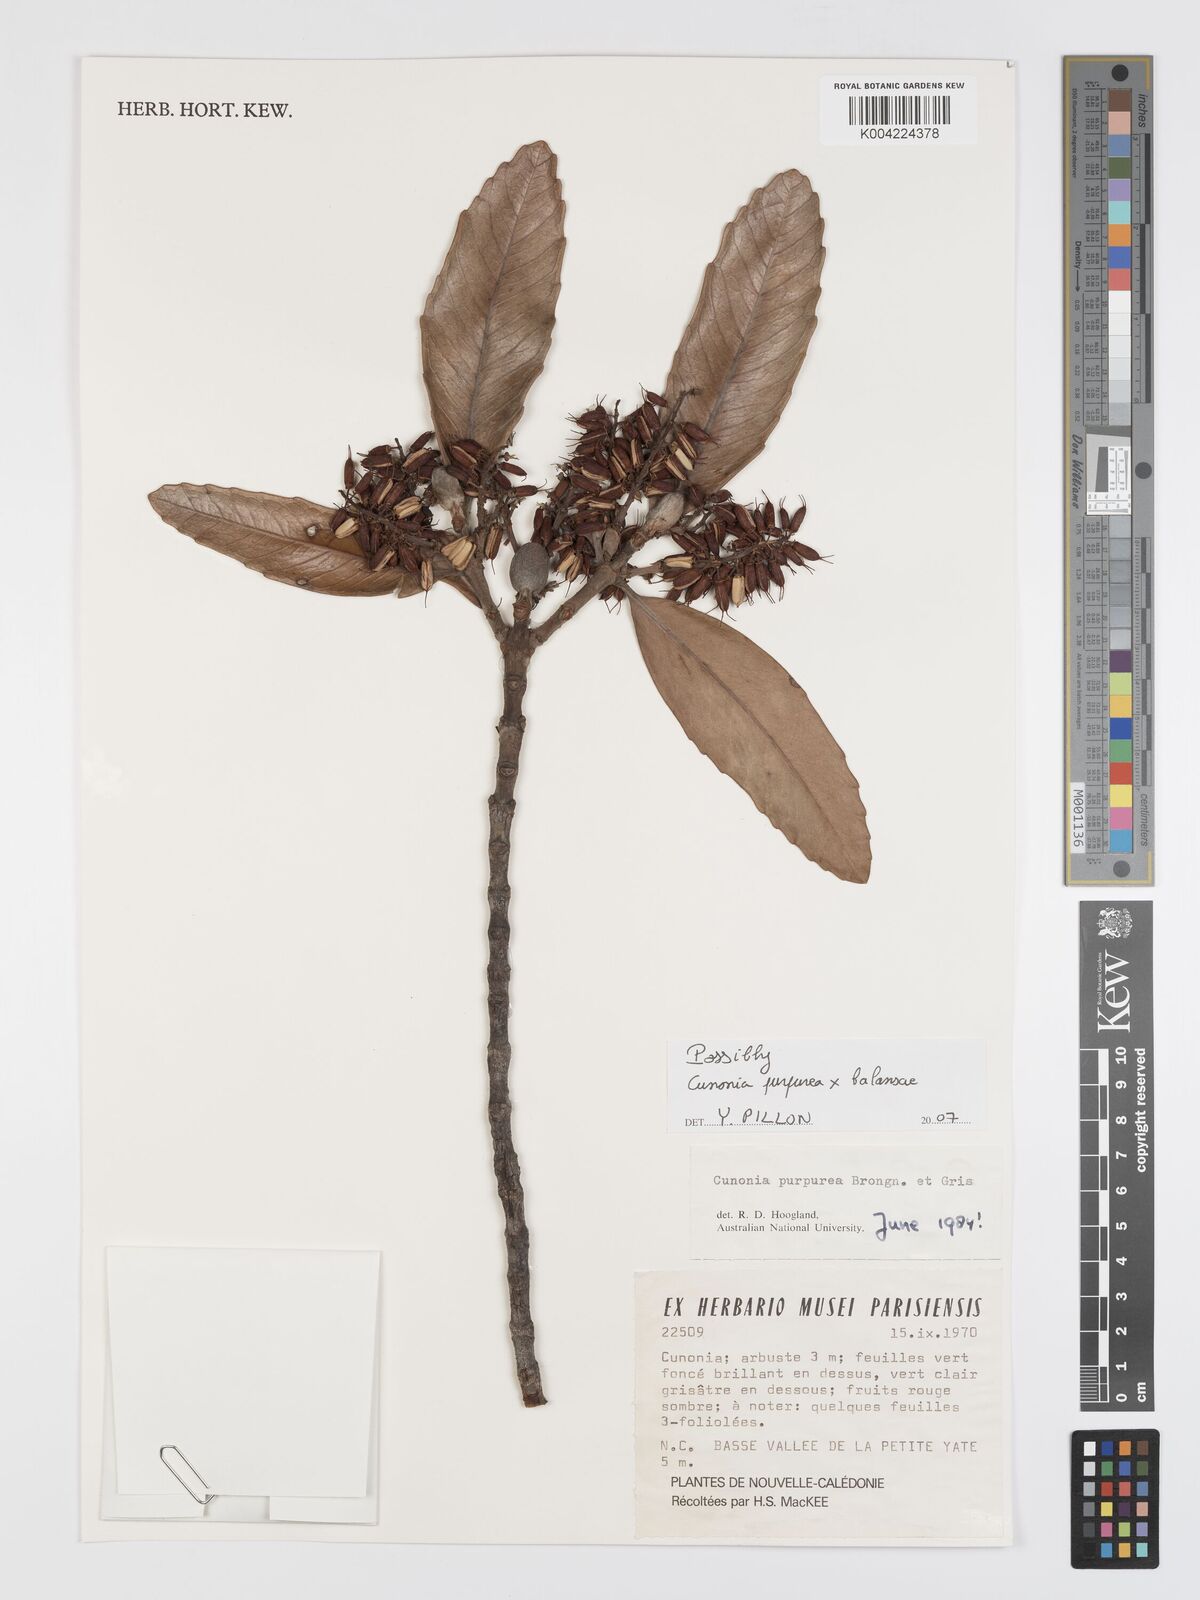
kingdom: Plantae
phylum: Tracheophyta
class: Magnoliopsida
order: Oxalidales
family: Cunoniaceae
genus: Cunonia
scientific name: Cunonia purpurea
